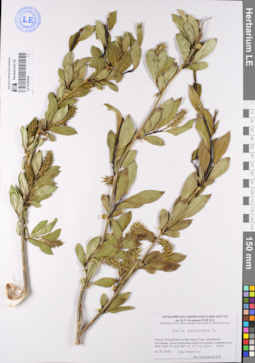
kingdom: Plantae
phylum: Tracheophyta
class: Magnoliopsida
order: Malpighiales
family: Salicaceae
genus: Salix
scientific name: Salix pseudopentandra
